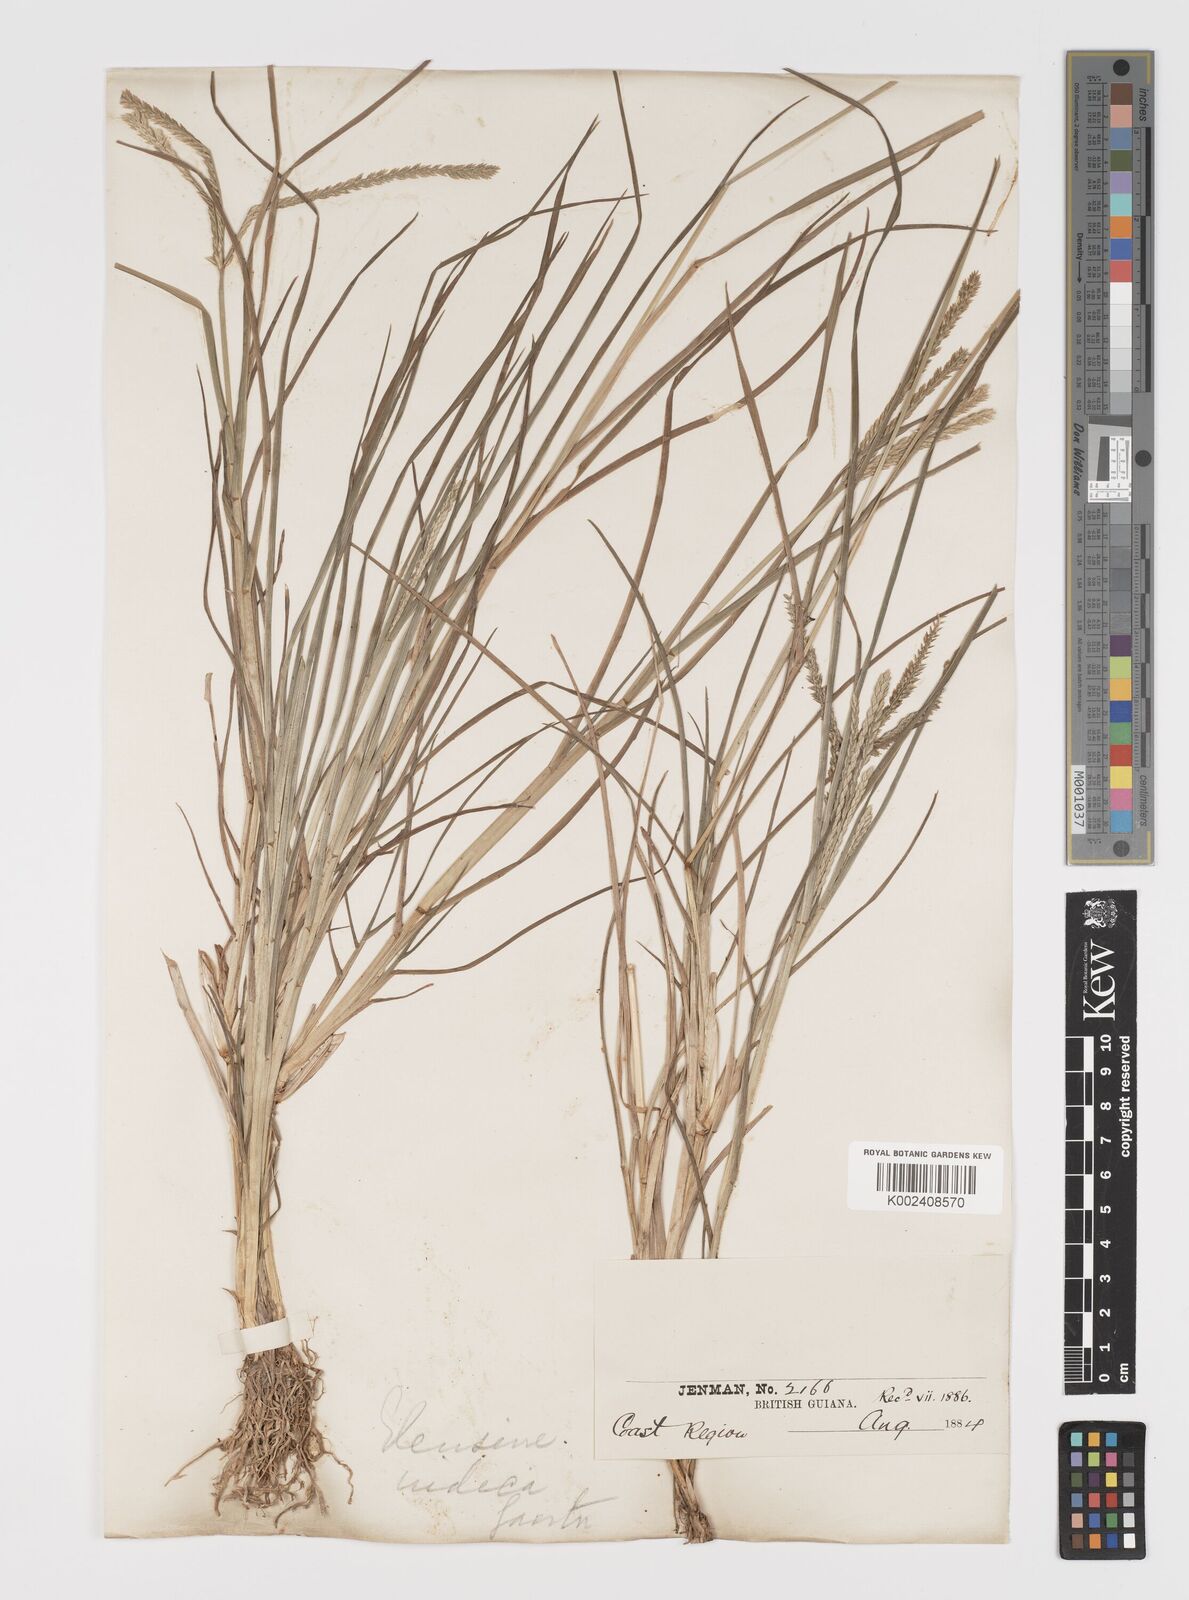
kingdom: Plantae
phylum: Tracheophyta
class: Liliopsida
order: Poales
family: Poaceae
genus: Eleusine
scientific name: Eleusine indica
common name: Yard-grass
